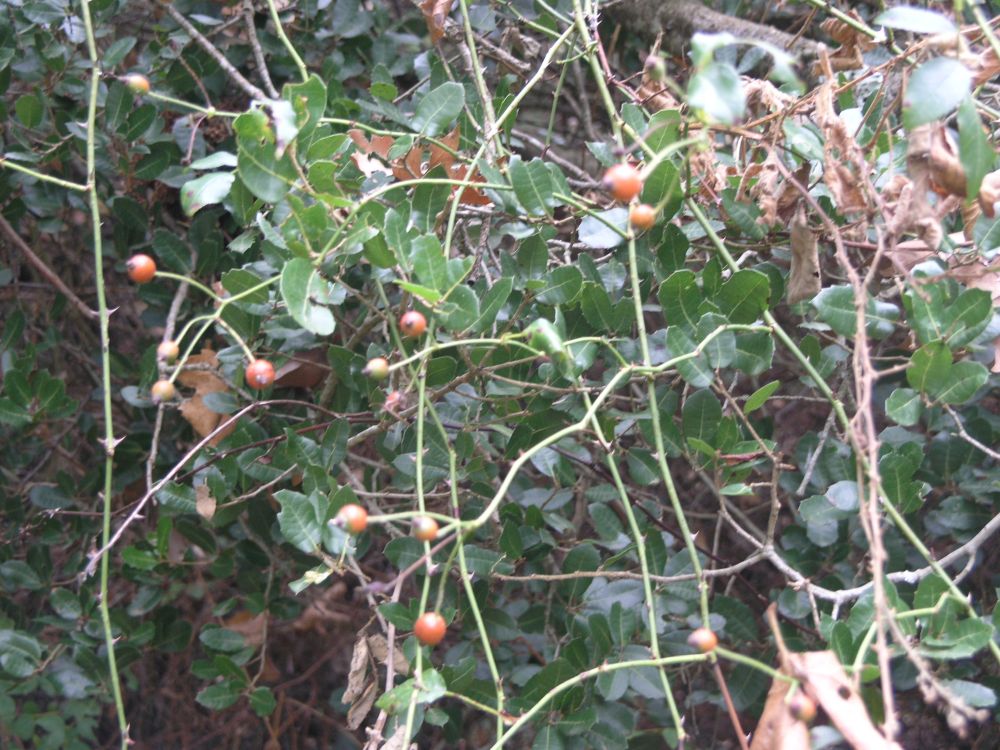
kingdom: Plantae
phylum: Tracheophyta
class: Magnoliopsida
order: Rosales
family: Rosaceae
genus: Rosa
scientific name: Rosa spinosissima
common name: Burnet rose
